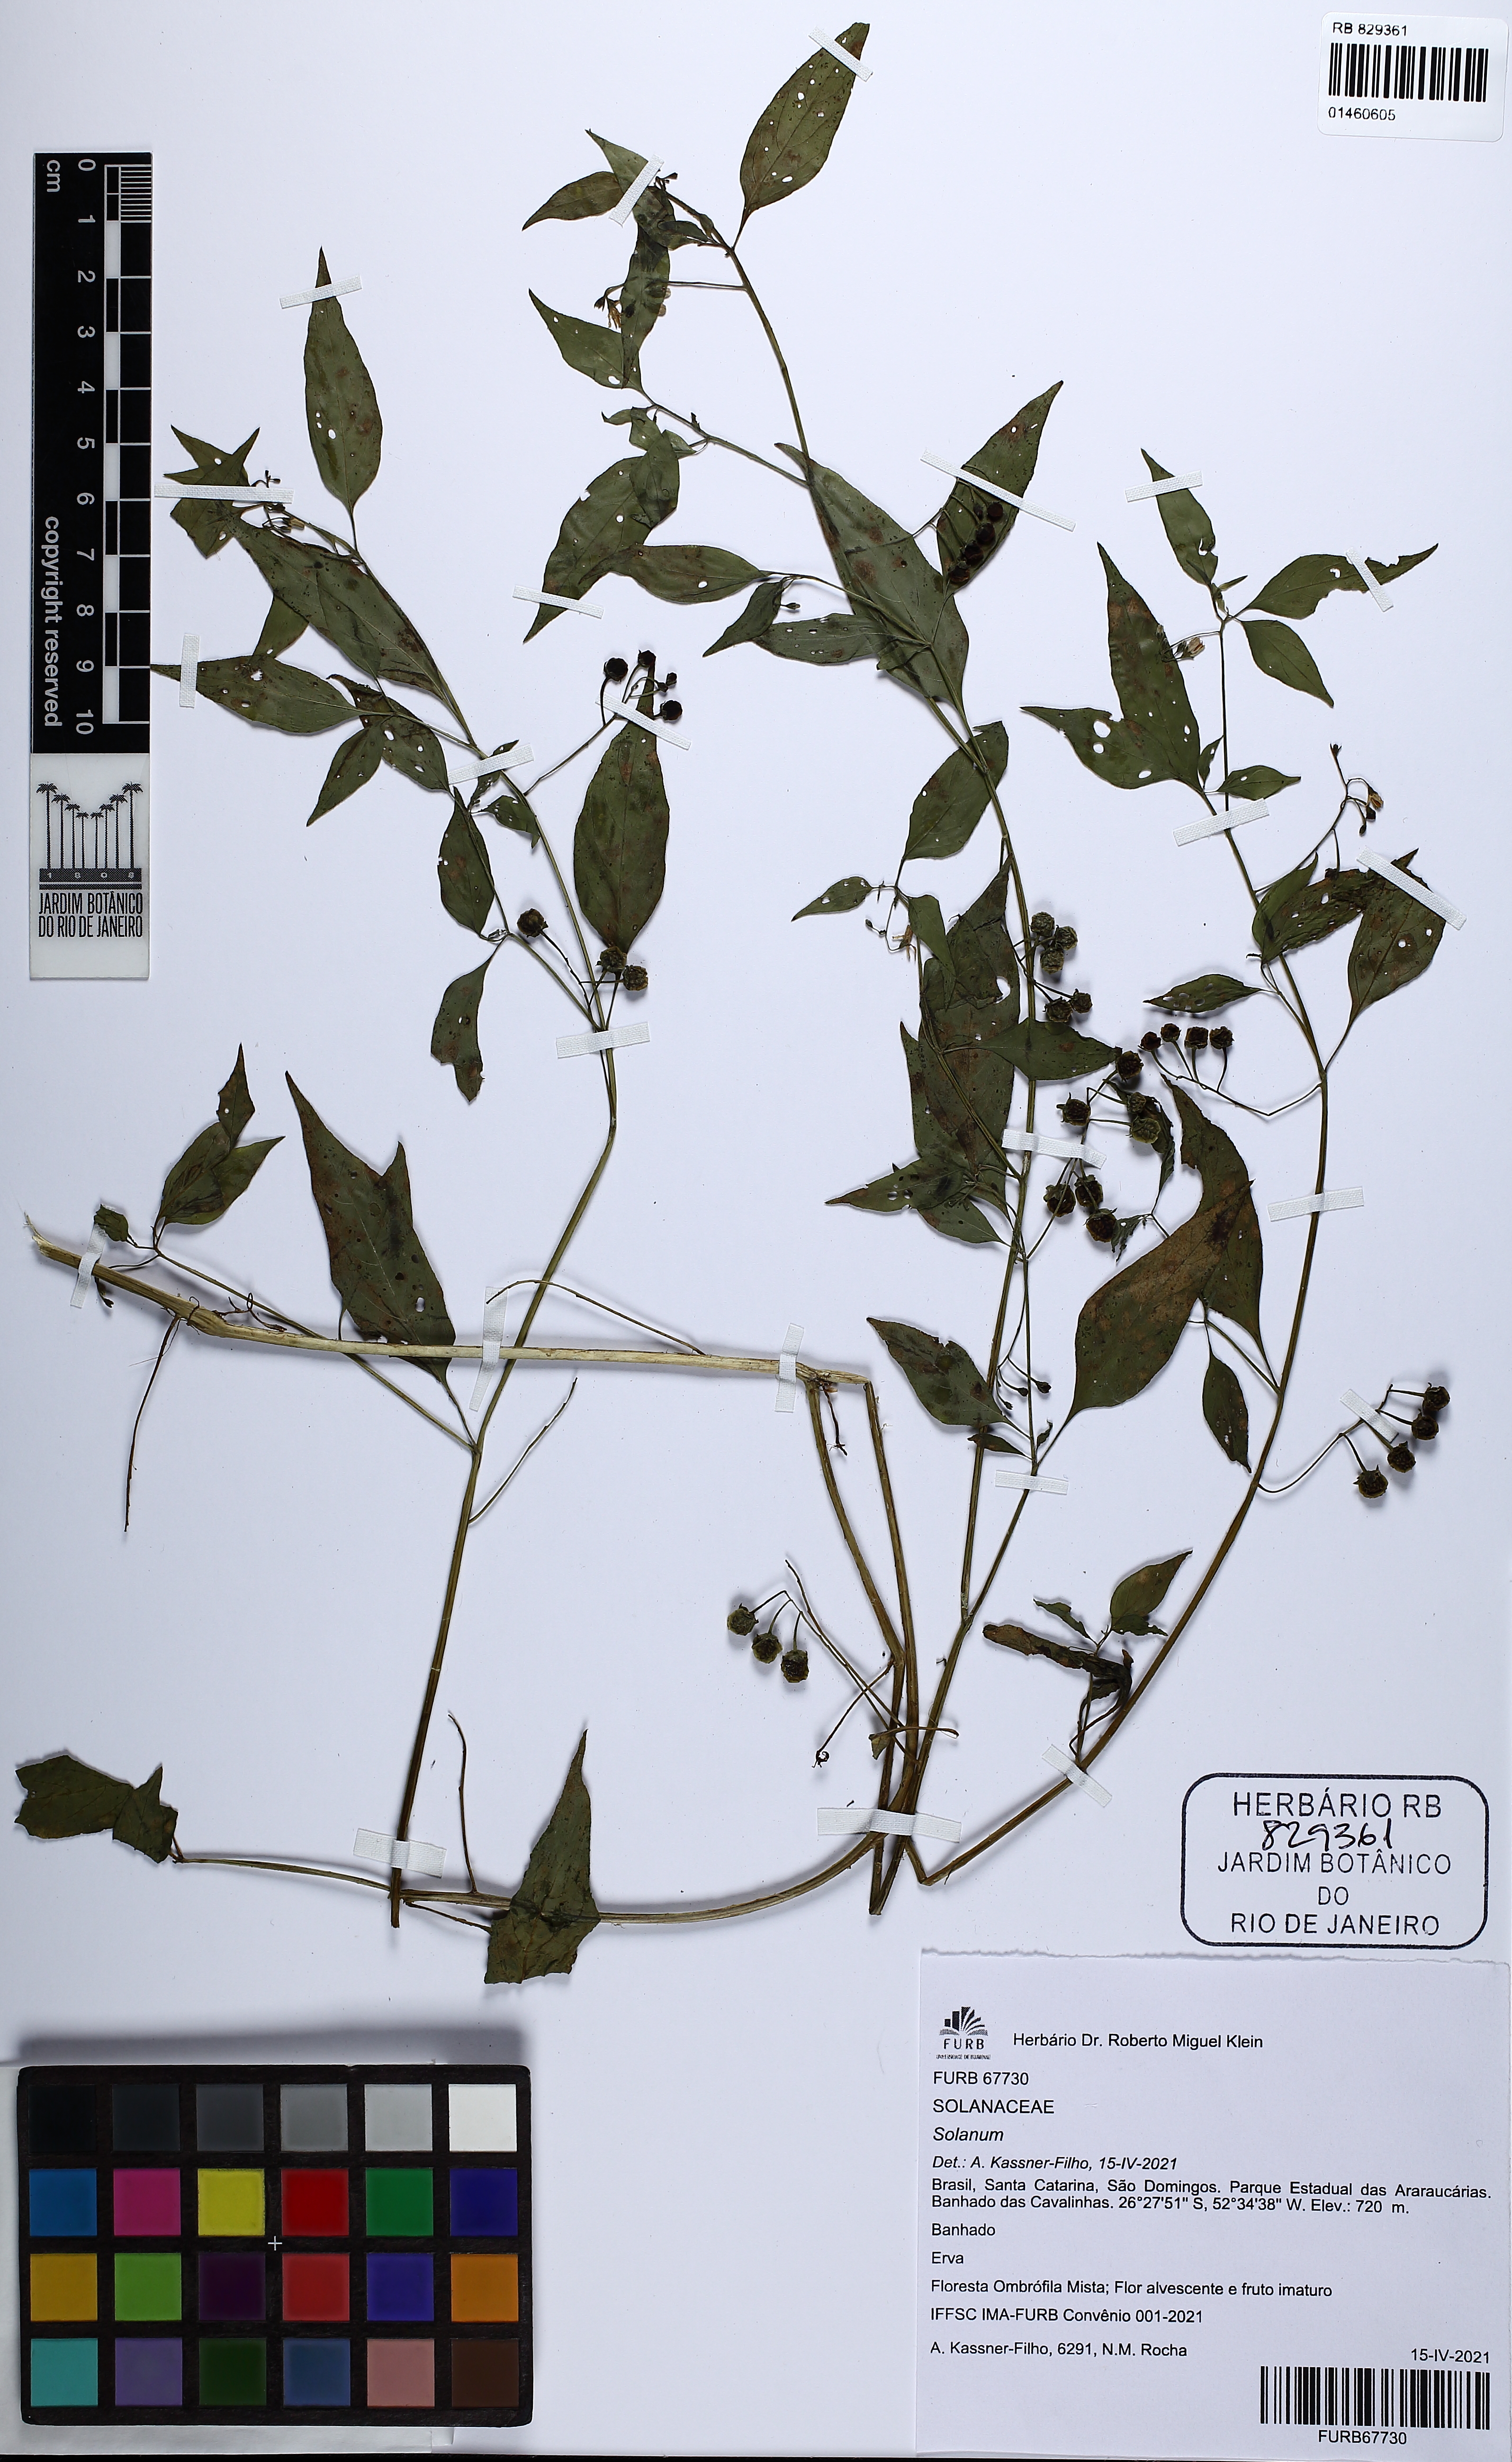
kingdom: Plantae
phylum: Tracheophyta
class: Magnoliopsida
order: Solanales
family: Solanaceae
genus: Solanum
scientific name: Solanum
